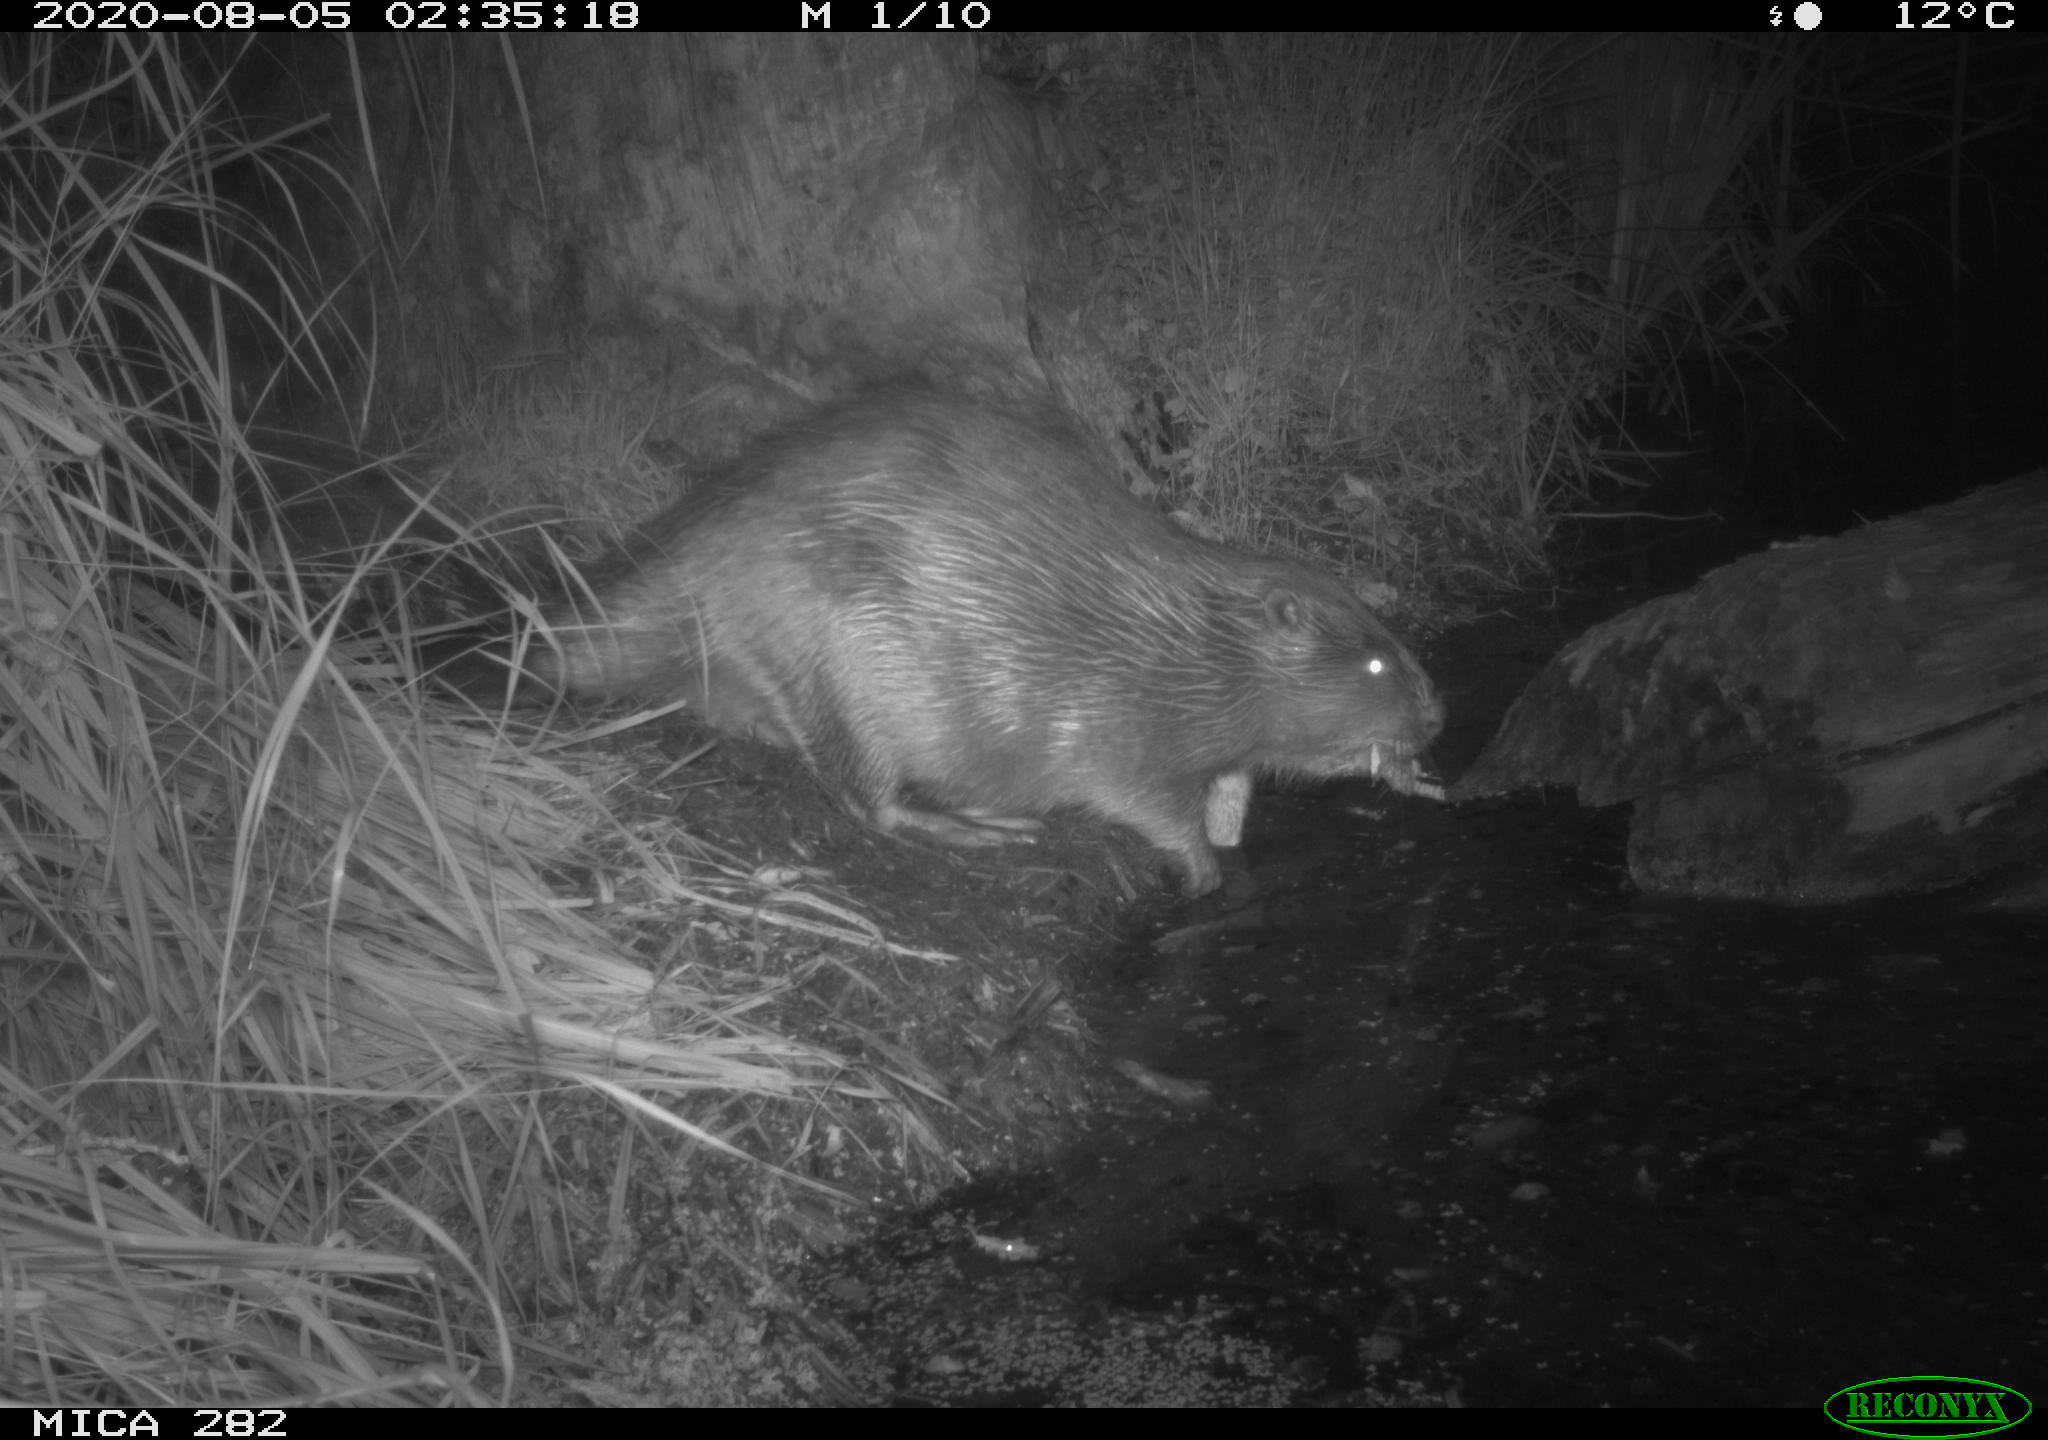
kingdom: Animalia
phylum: Chordata
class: Mammalia
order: Rodentia
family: Castoridae
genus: Castor
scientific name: Castor fiber
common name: Eurasian beaver
